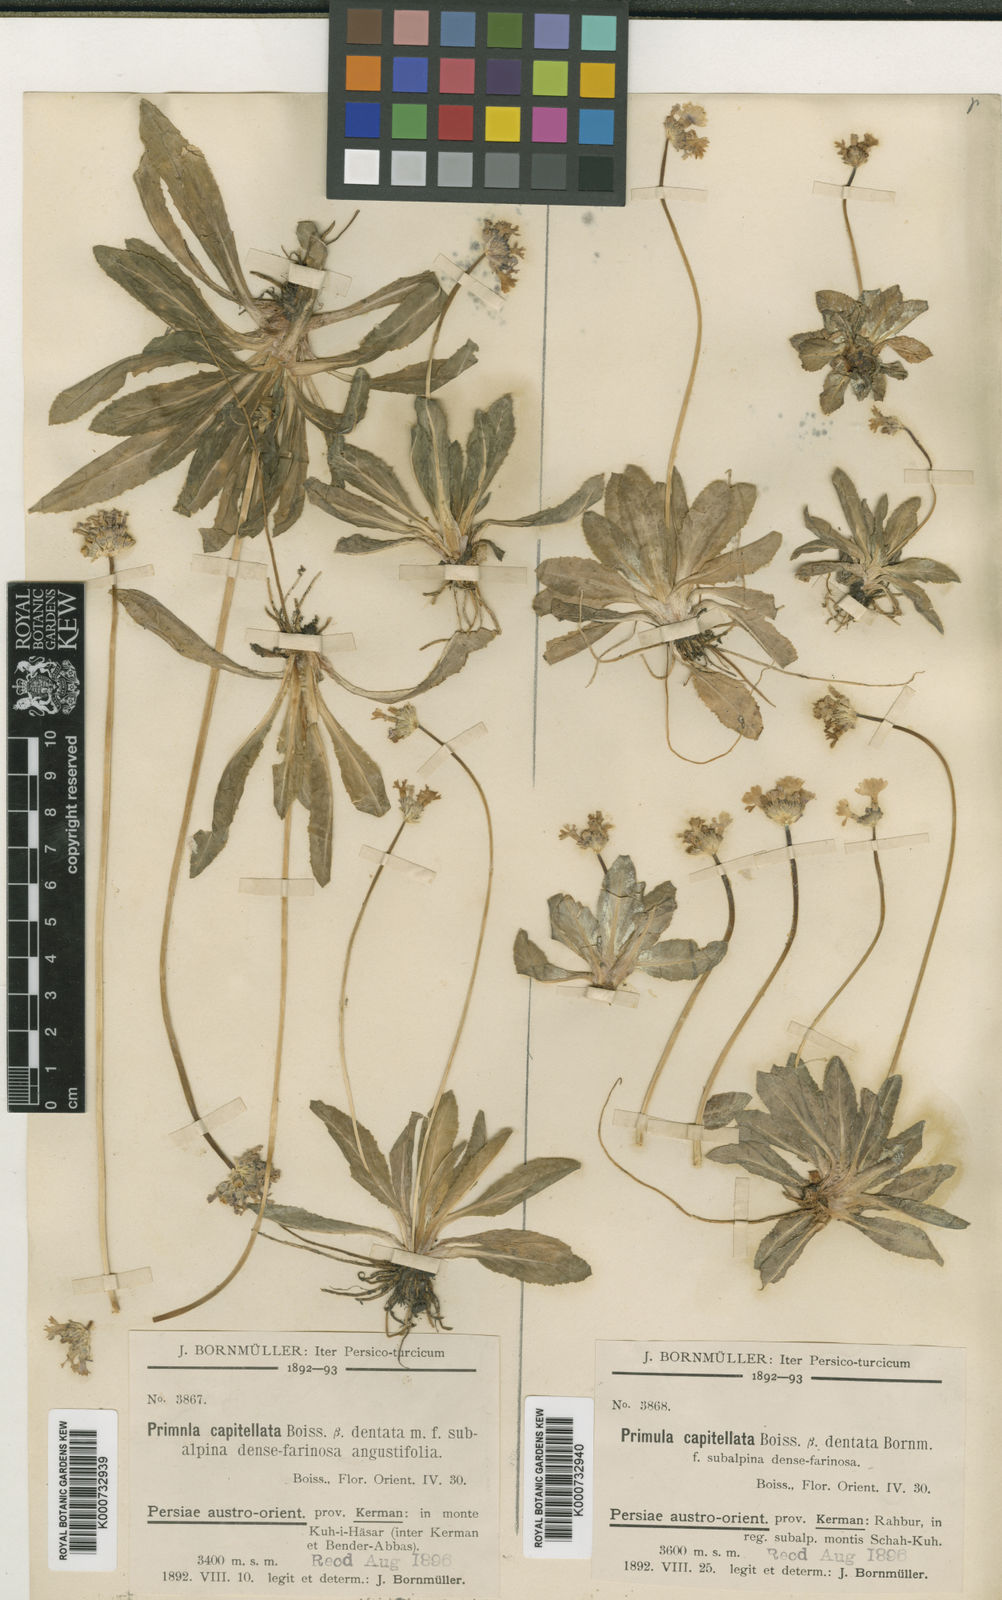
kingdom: Plantae
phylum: Tracheophyta
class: Magnoliopsida
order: Ericales
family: Primulaceae
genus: Primula
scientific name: Primula capitellata
